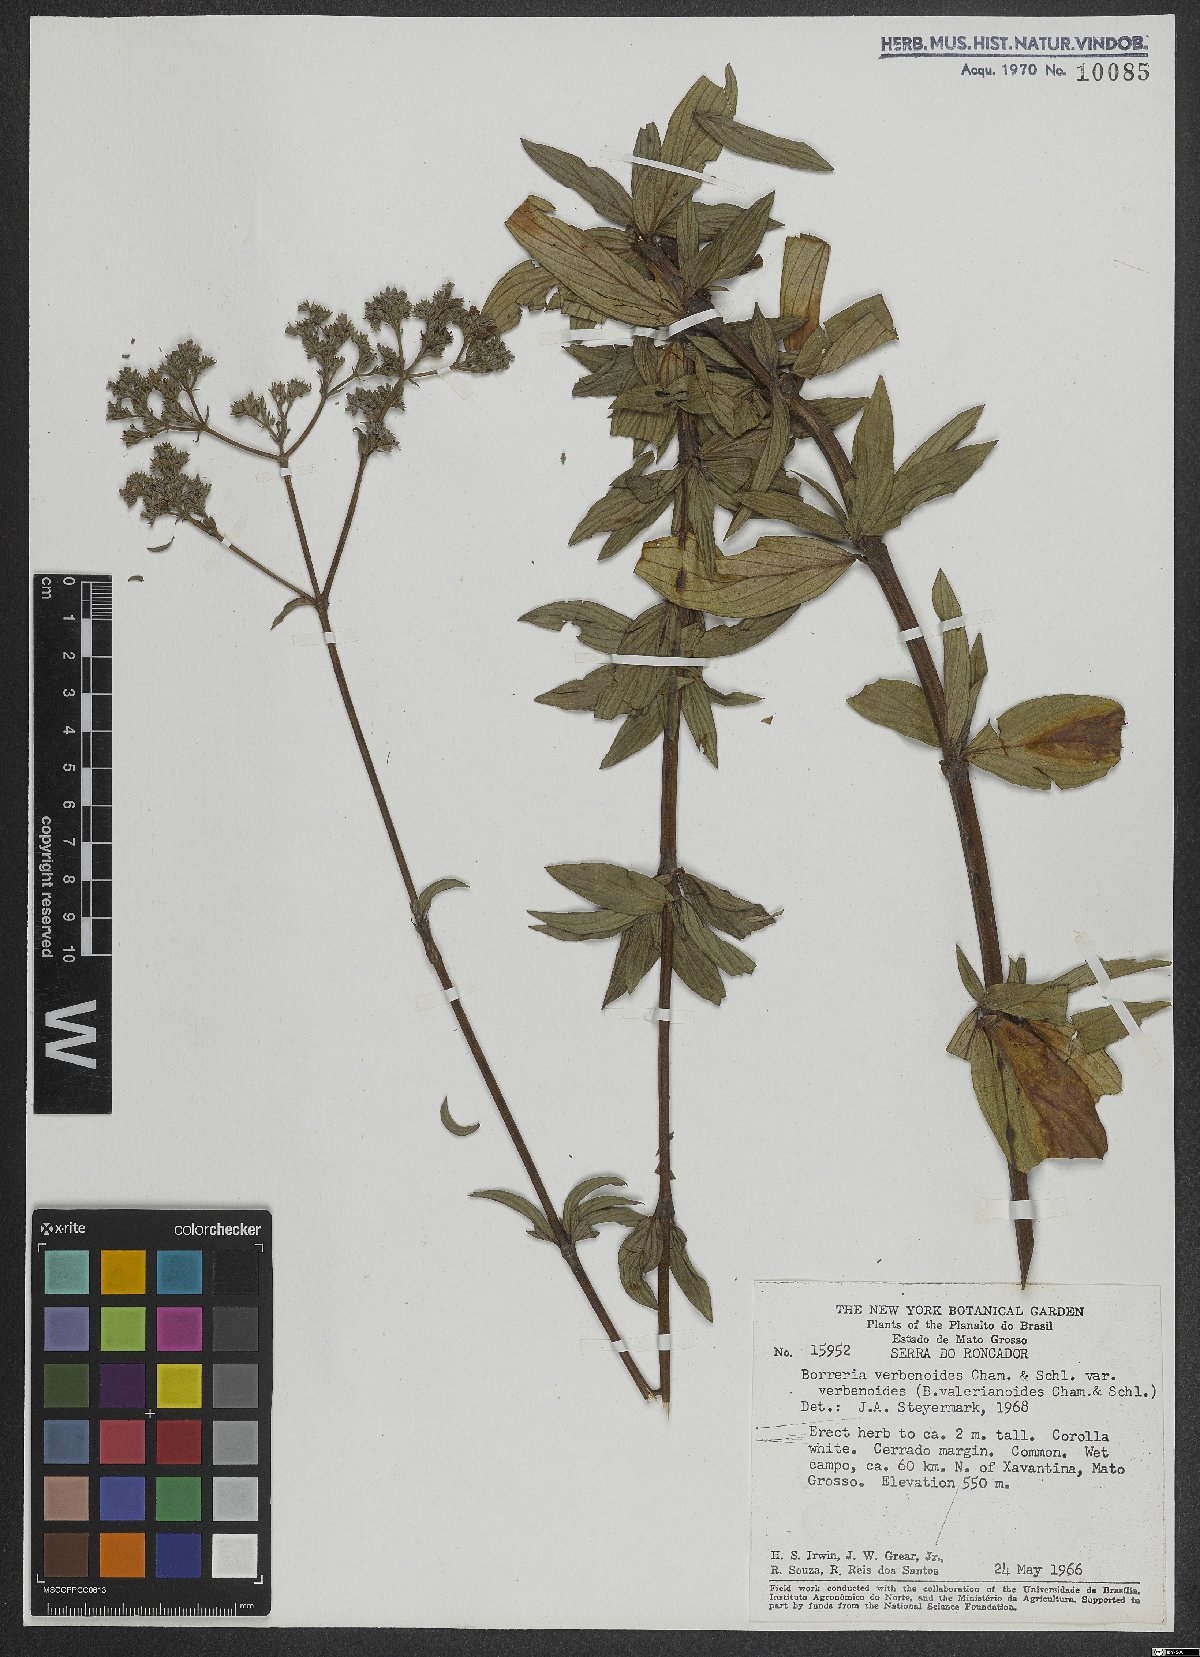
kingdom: Plantae
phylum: Tracheophyta
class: Magnoliopsida
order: Gentianales
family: Rubiaceae
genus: Spermacoce
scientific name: Spermacoce verbenoides
